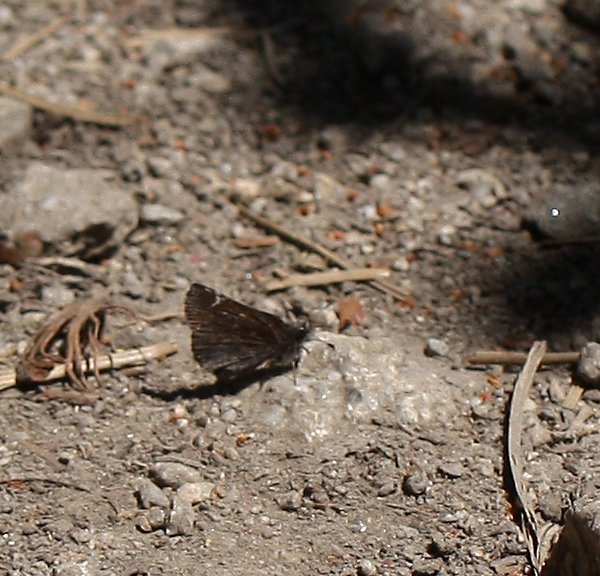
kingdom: Animalia
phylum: Arthropoda
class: Insecta
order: Lepidoptera
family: Hesperiidae
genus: Gesta
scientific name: Gesta
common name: Persius Duskywing
